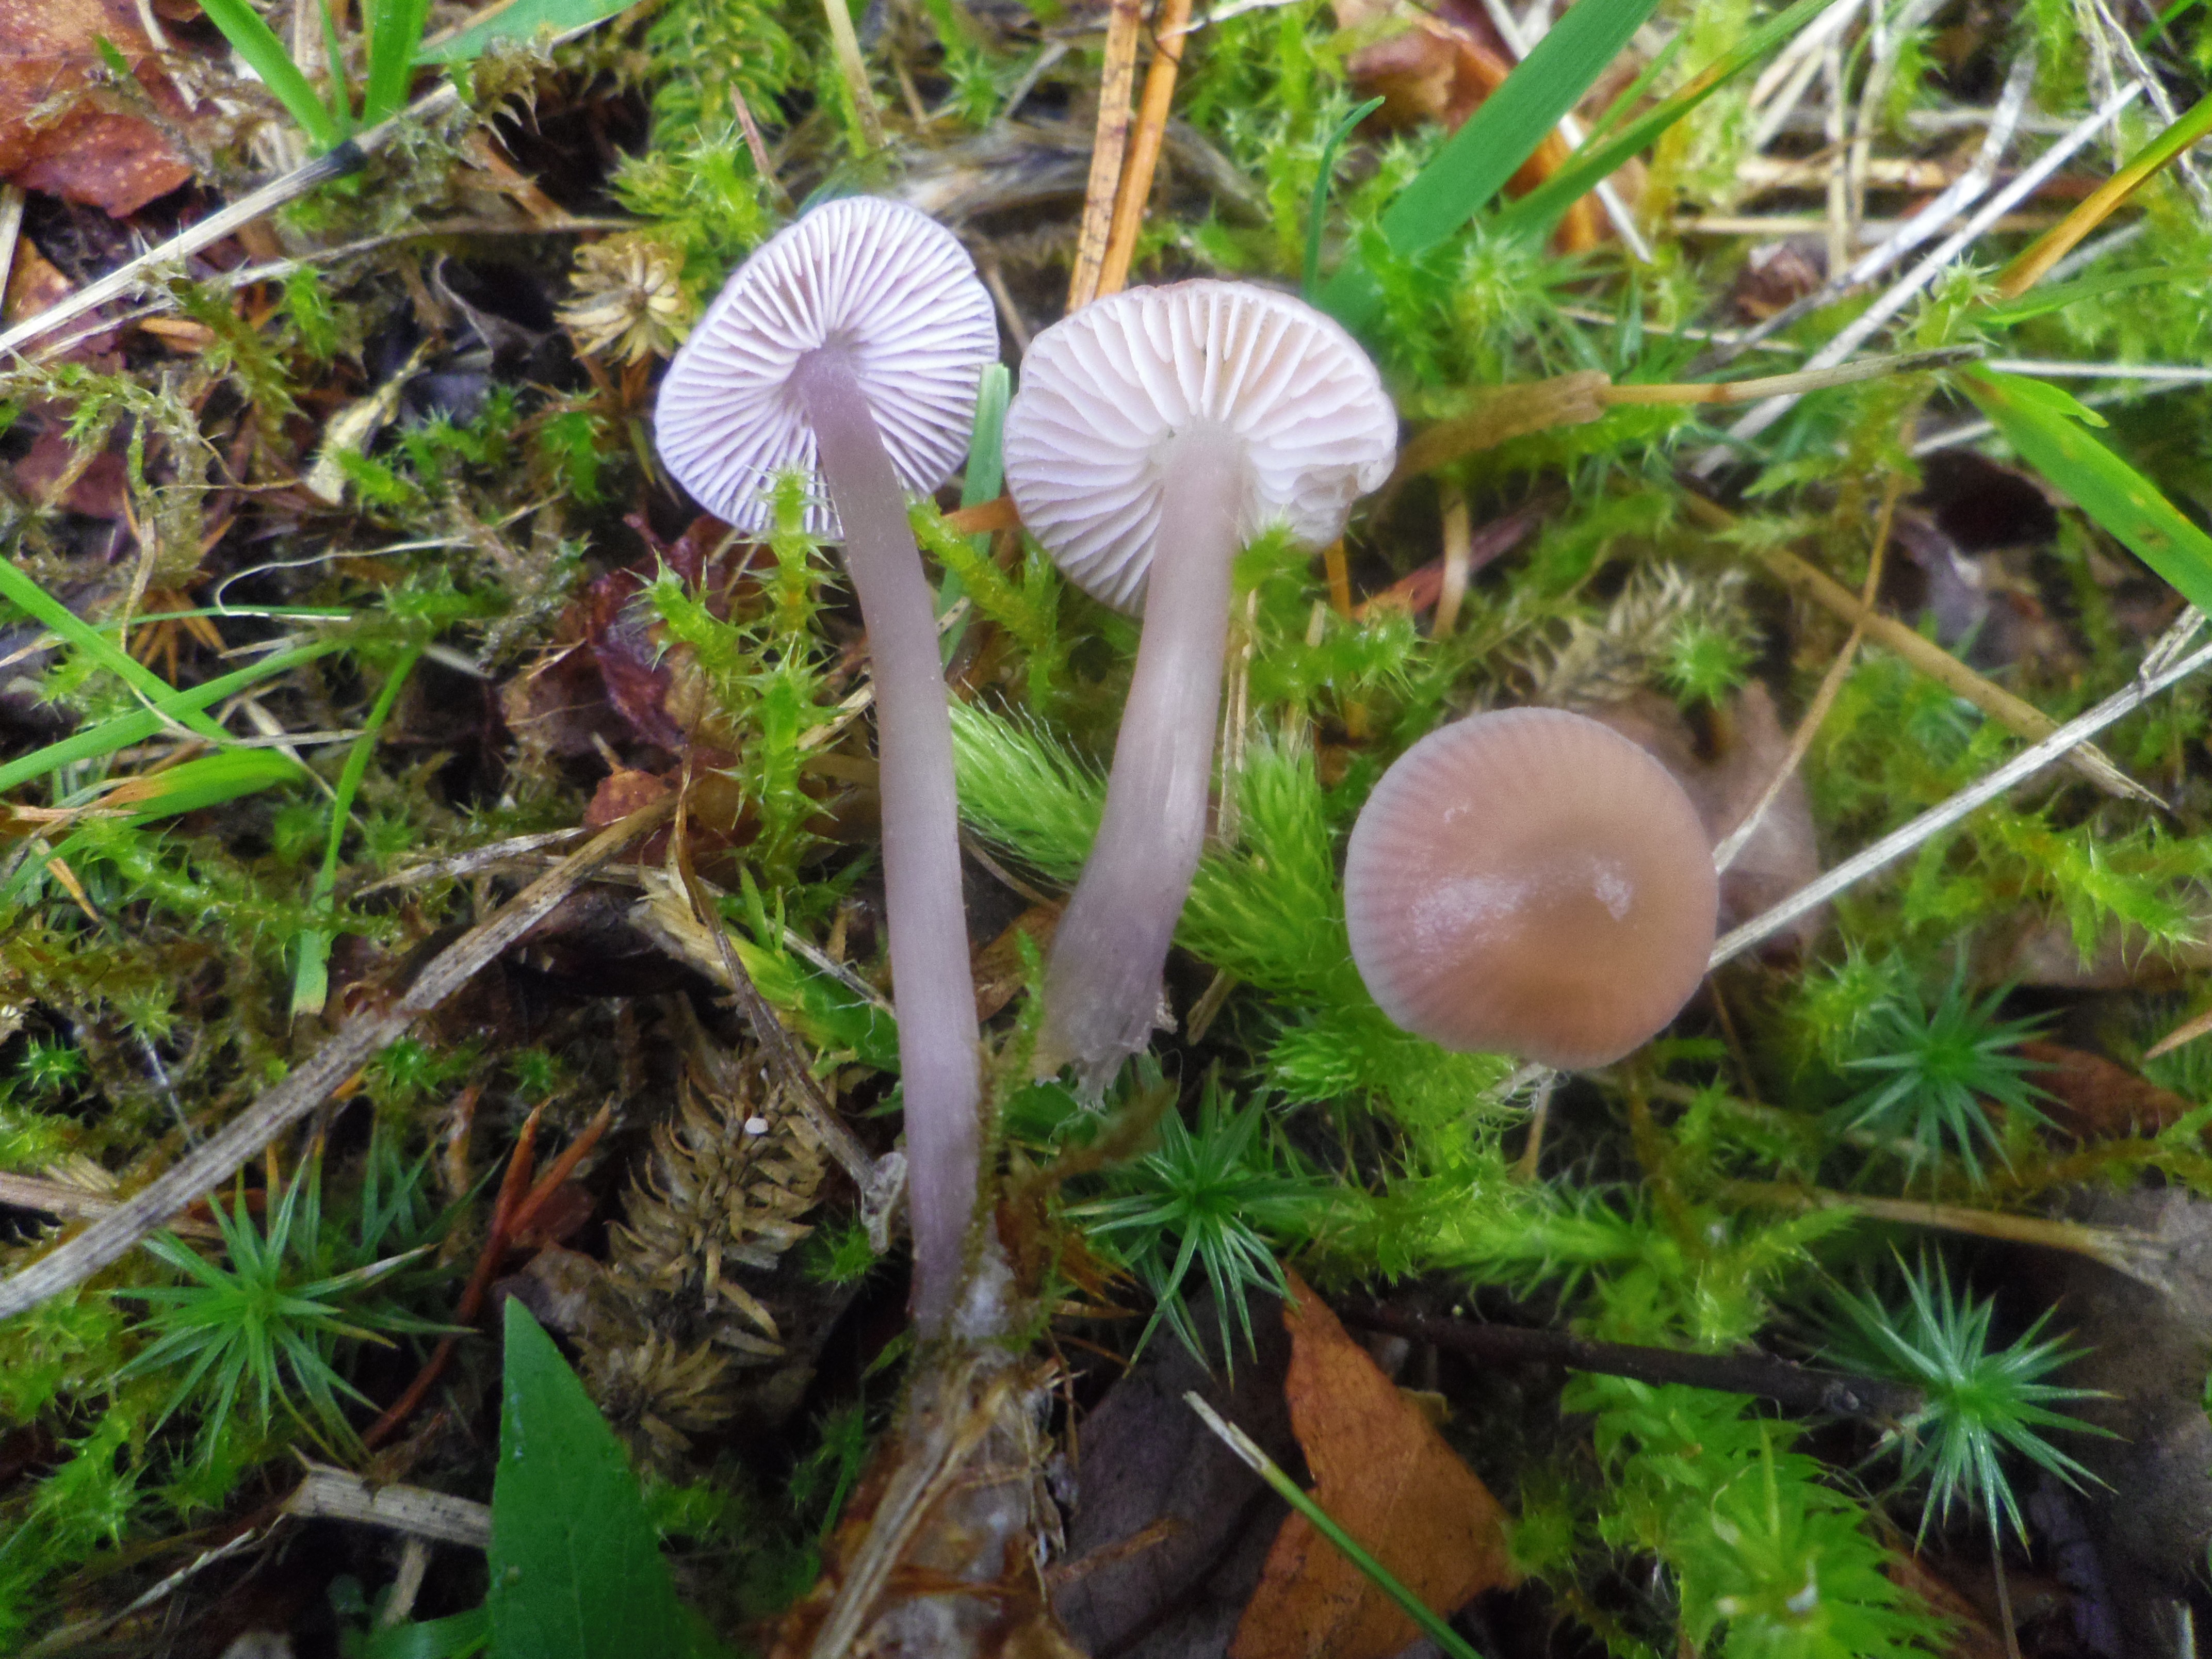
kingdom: Fungi
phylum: Basidiomycota
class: Agaricomycetes
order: Agaricales
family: Mycenaceae
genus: Mycena
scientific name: Mycena pura
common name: Lilac bonnet
